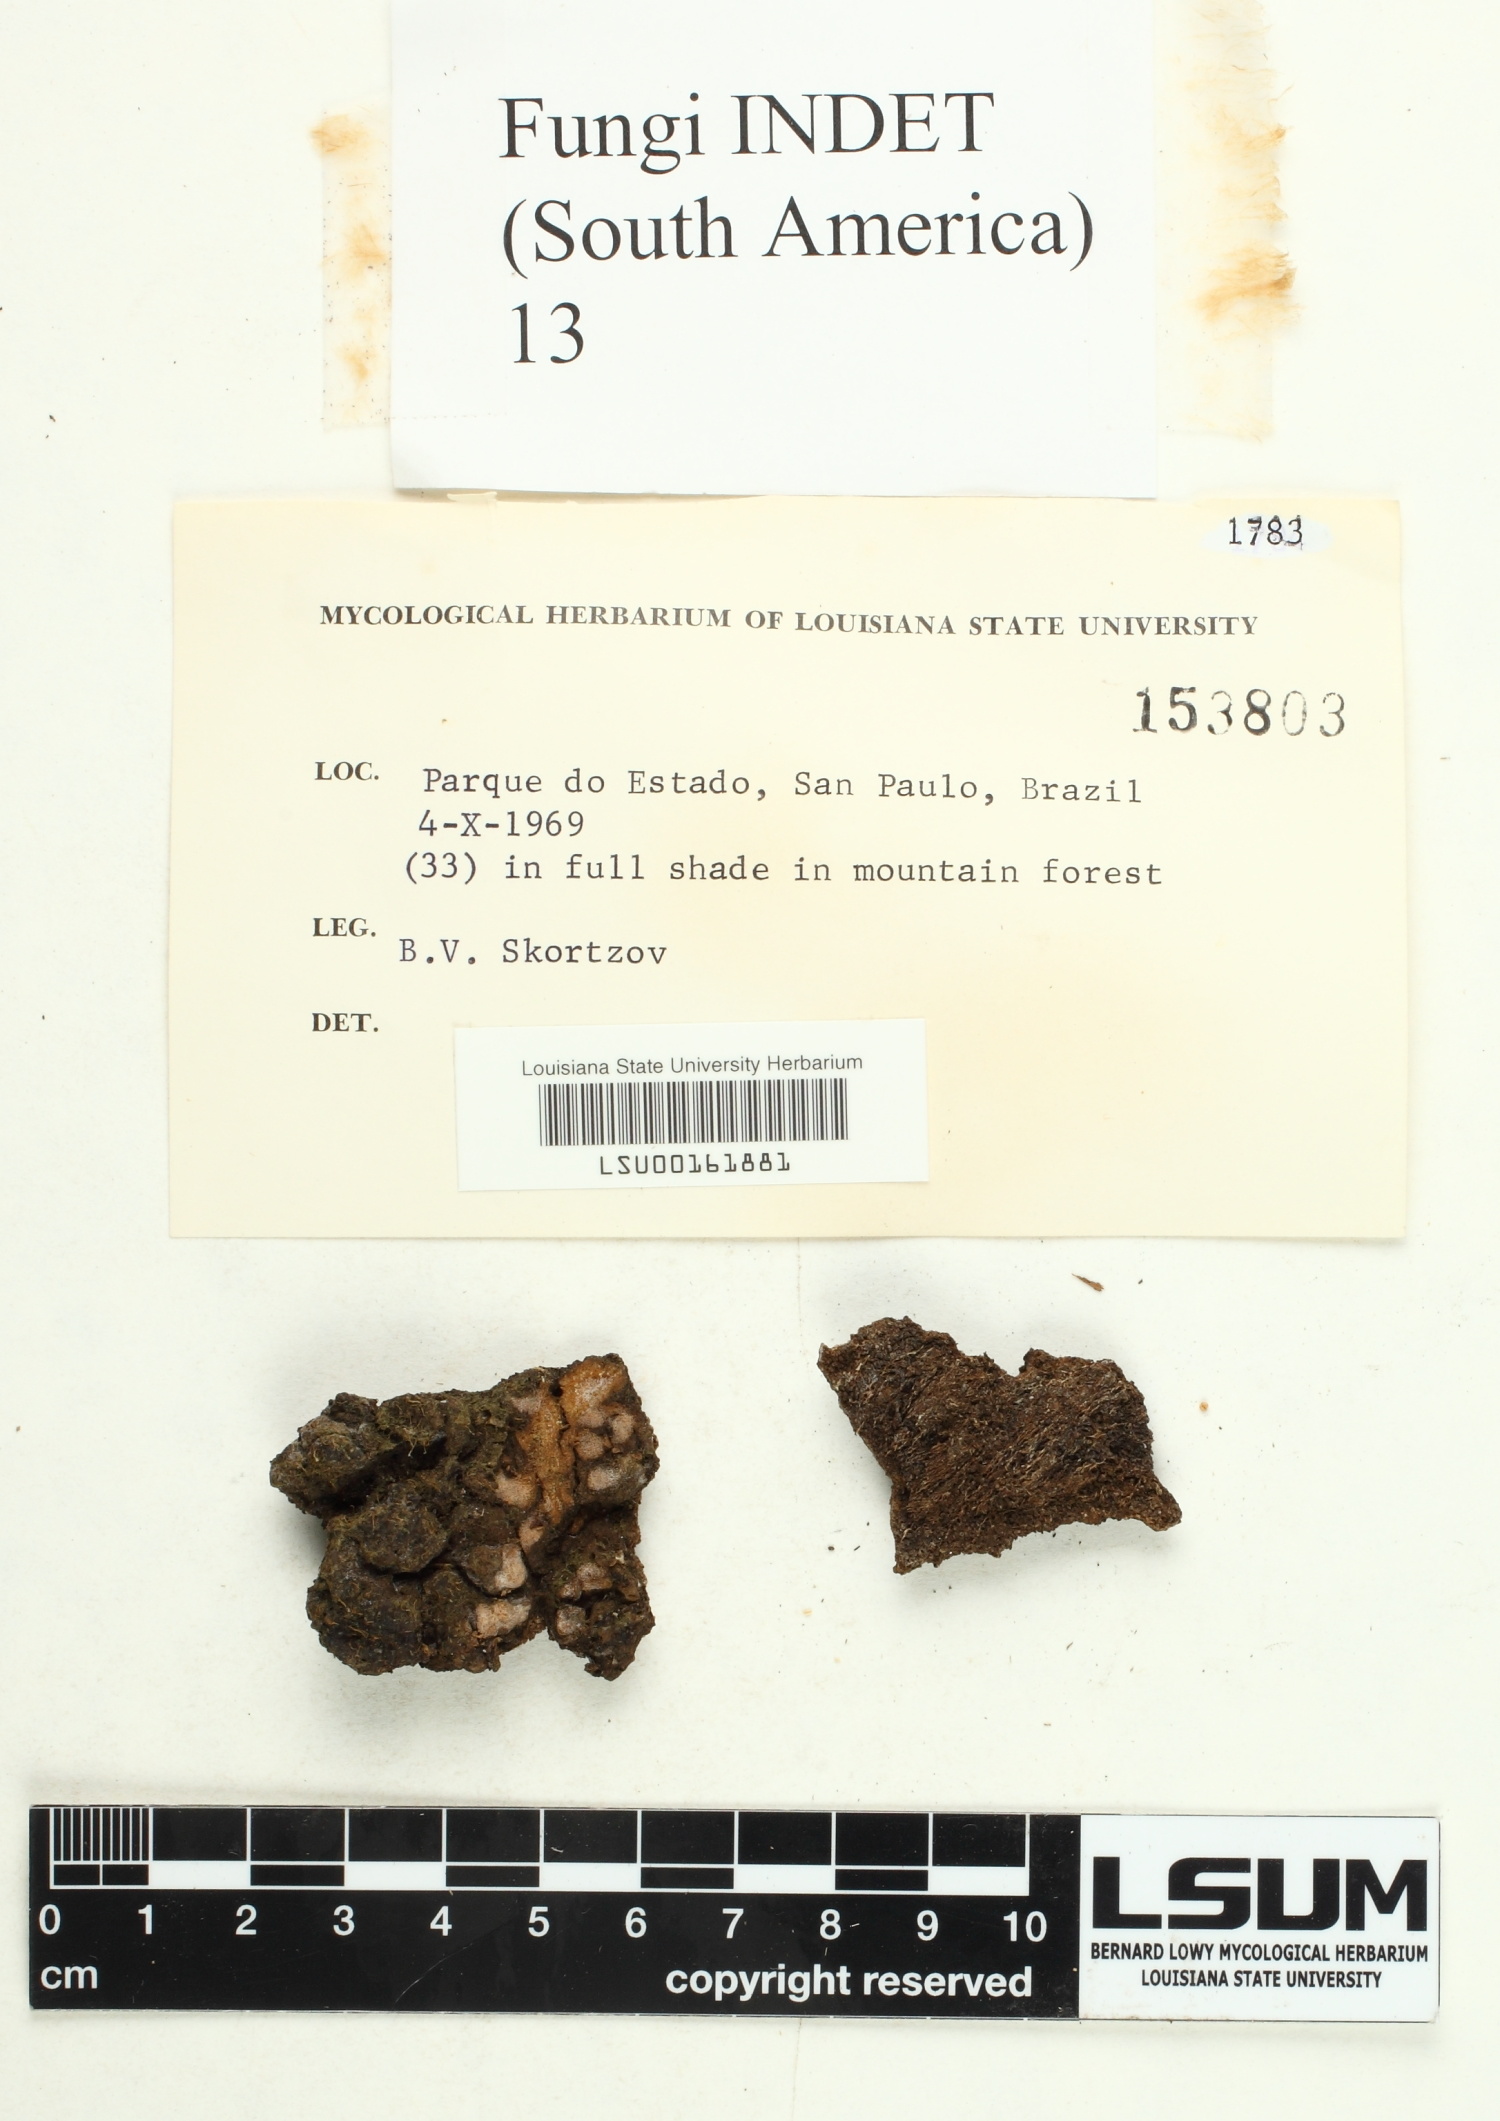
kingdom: Fungi
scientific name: Fungi
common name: Fungi
